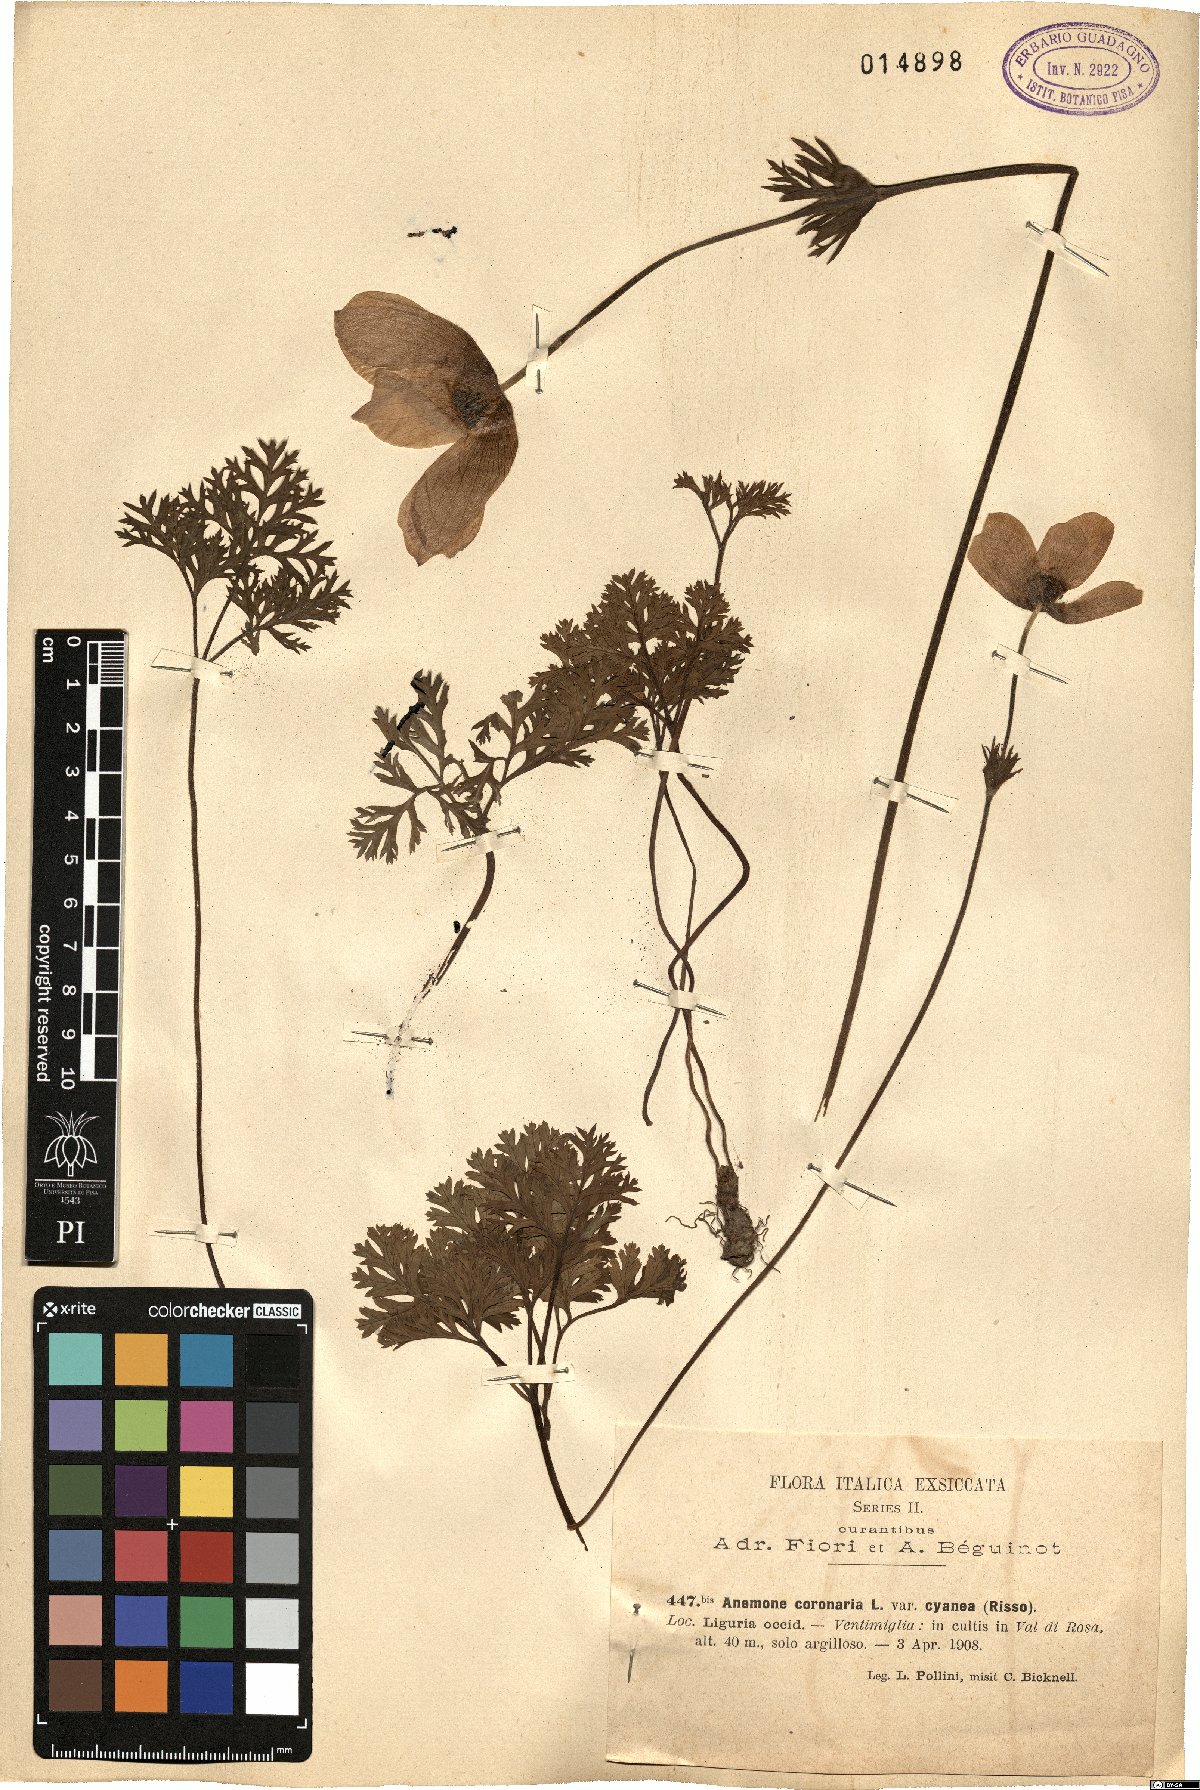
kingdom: Plantae
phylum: Tracheophyta
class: Magnoliopsida
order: Ranunculales
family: Ranunculaceae
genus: Anemone
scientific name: Anemone coronaria
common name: Poppy anemone
